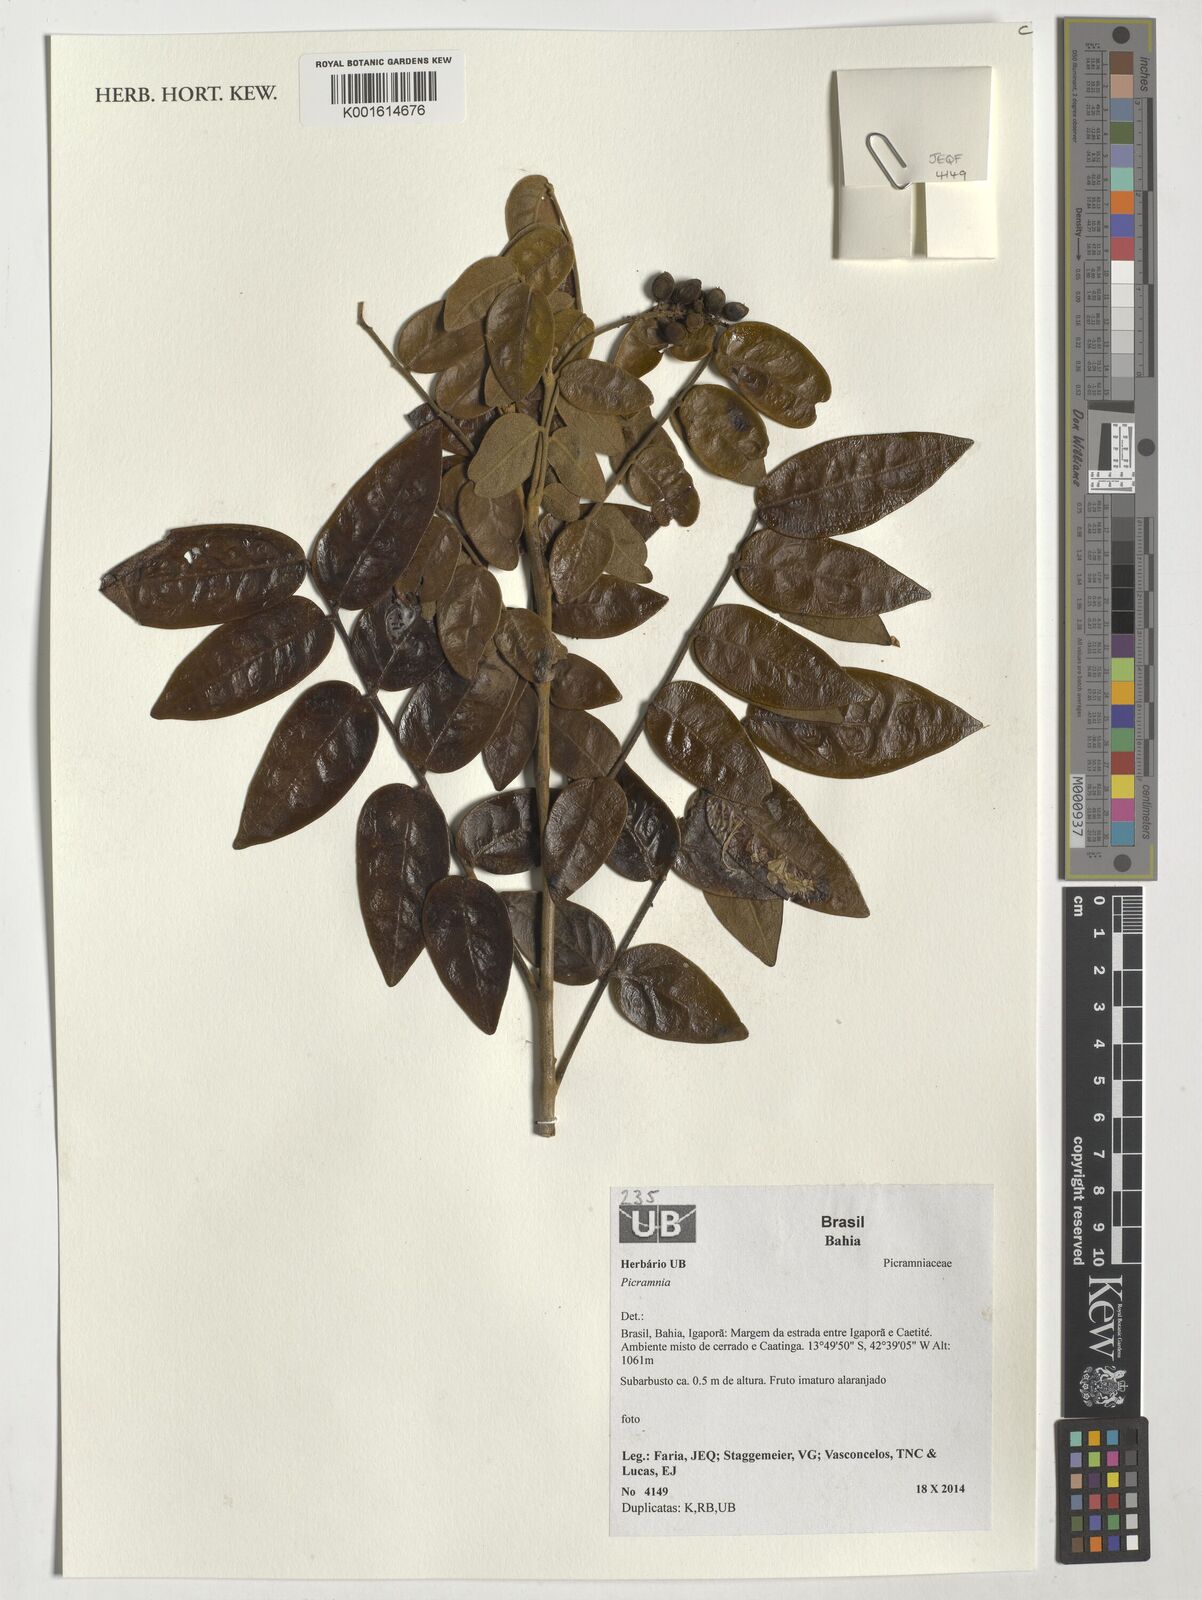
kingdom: Plantae
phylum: Tracheophyta
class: Magnoliopsida
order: Picramniales
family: Picramniaceae
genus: Picramnia
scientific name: Picramnia
